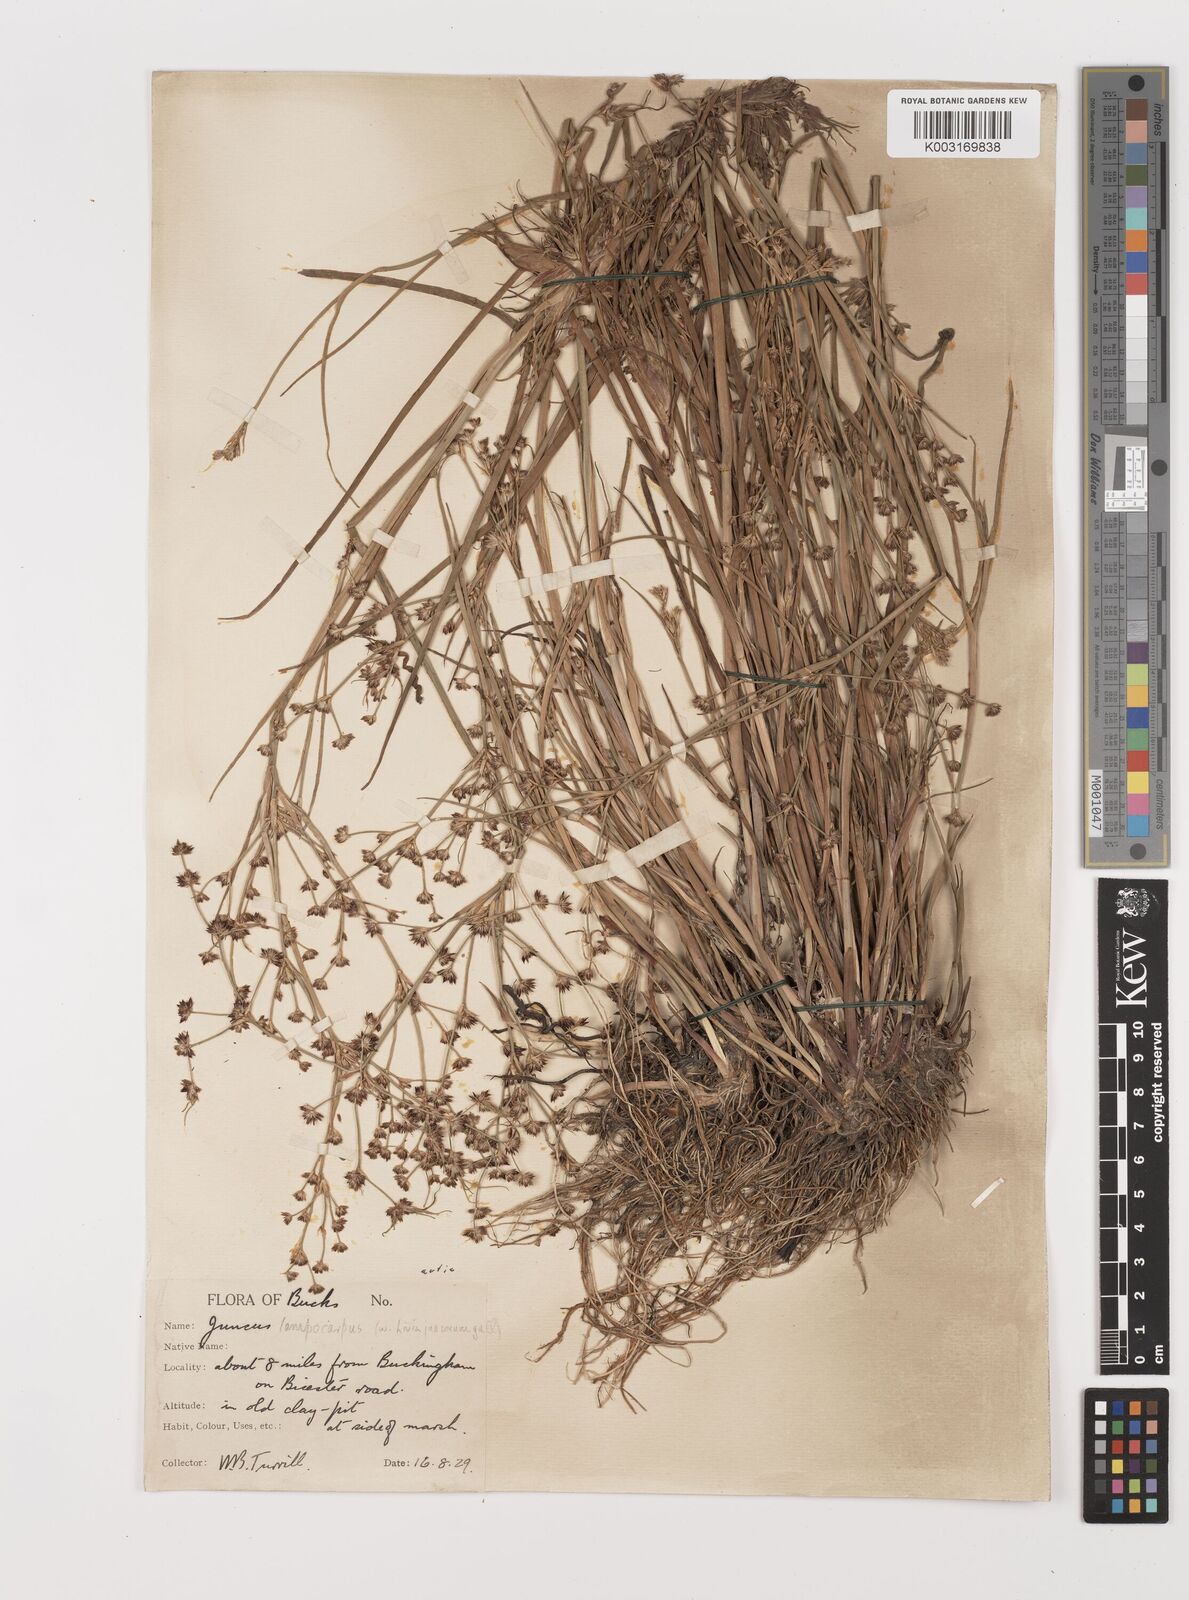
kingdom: Plantae
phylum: Tracheophyta
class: Liliopsida
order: Poales
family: Juncaceae
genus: Juncus
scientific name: Juncus articulatus
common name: Jointed rush
